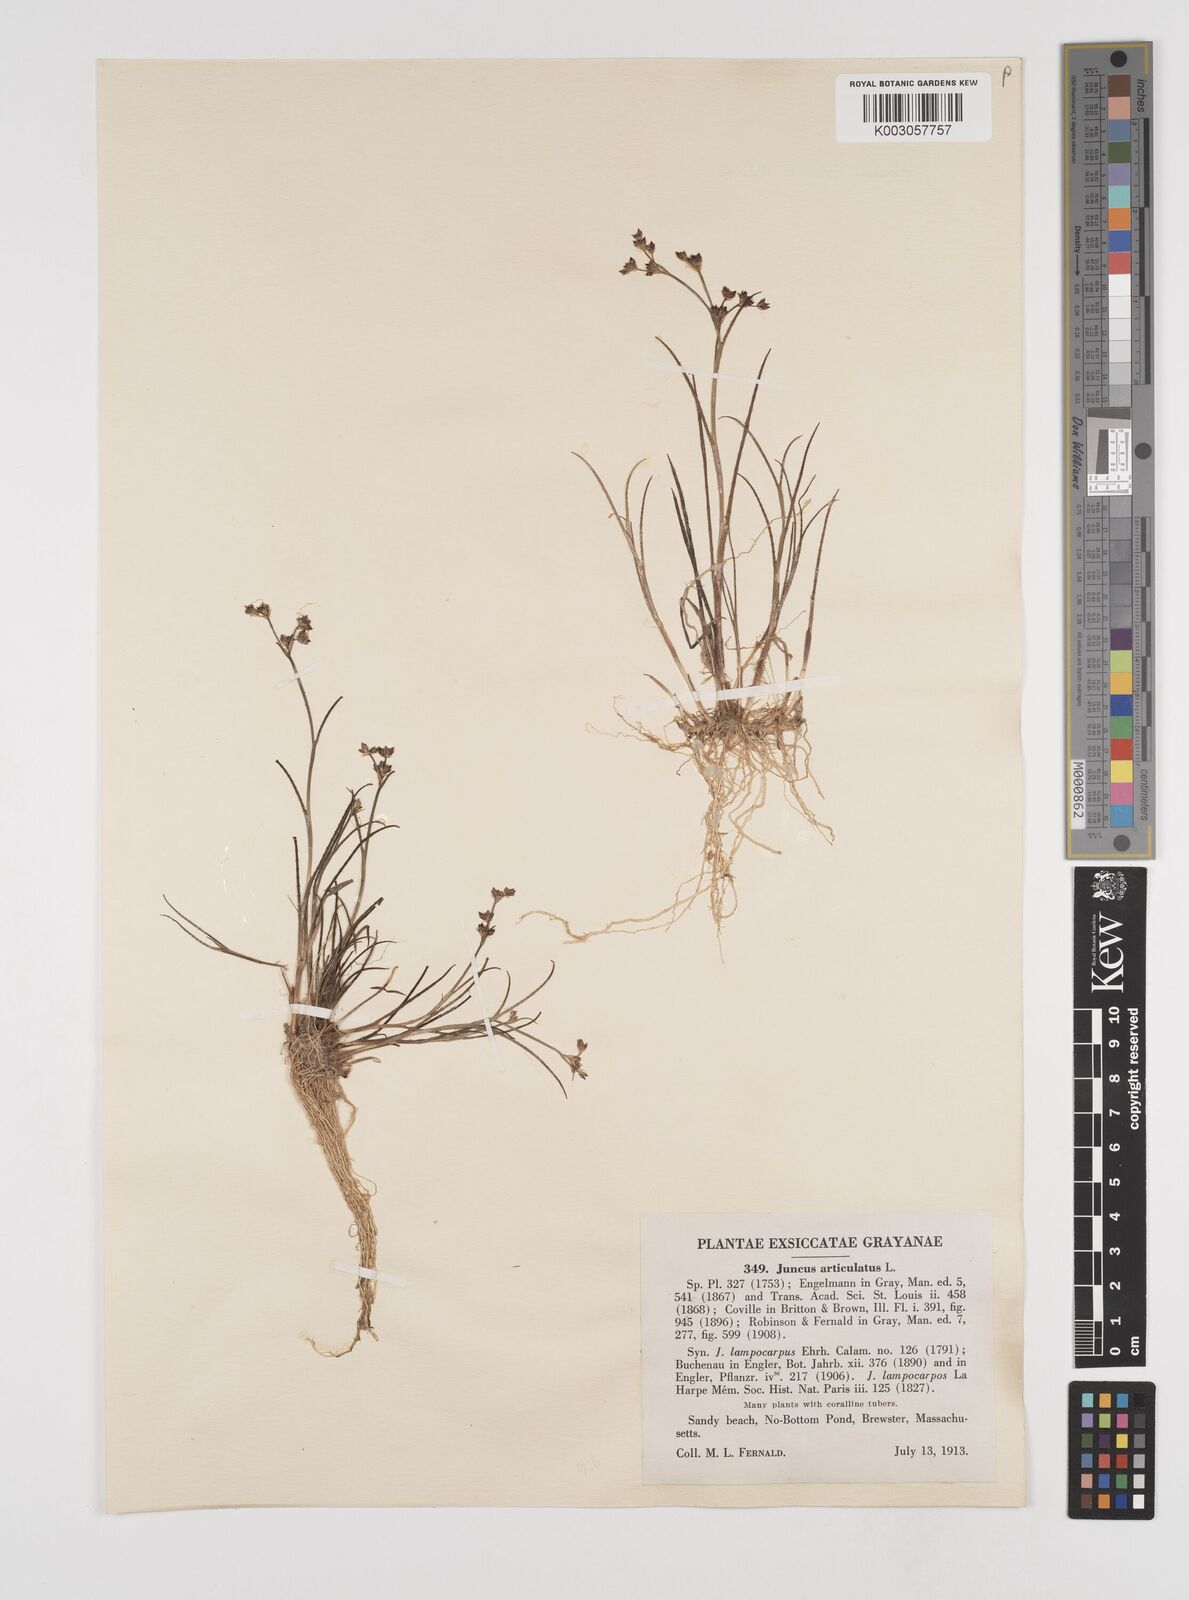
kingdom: Plantae
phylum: Tracheophyta
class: Liliopsida
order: Poales
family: Juncaceae
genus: Juncus
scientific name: Juncus articulatus
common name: Jointed rush
